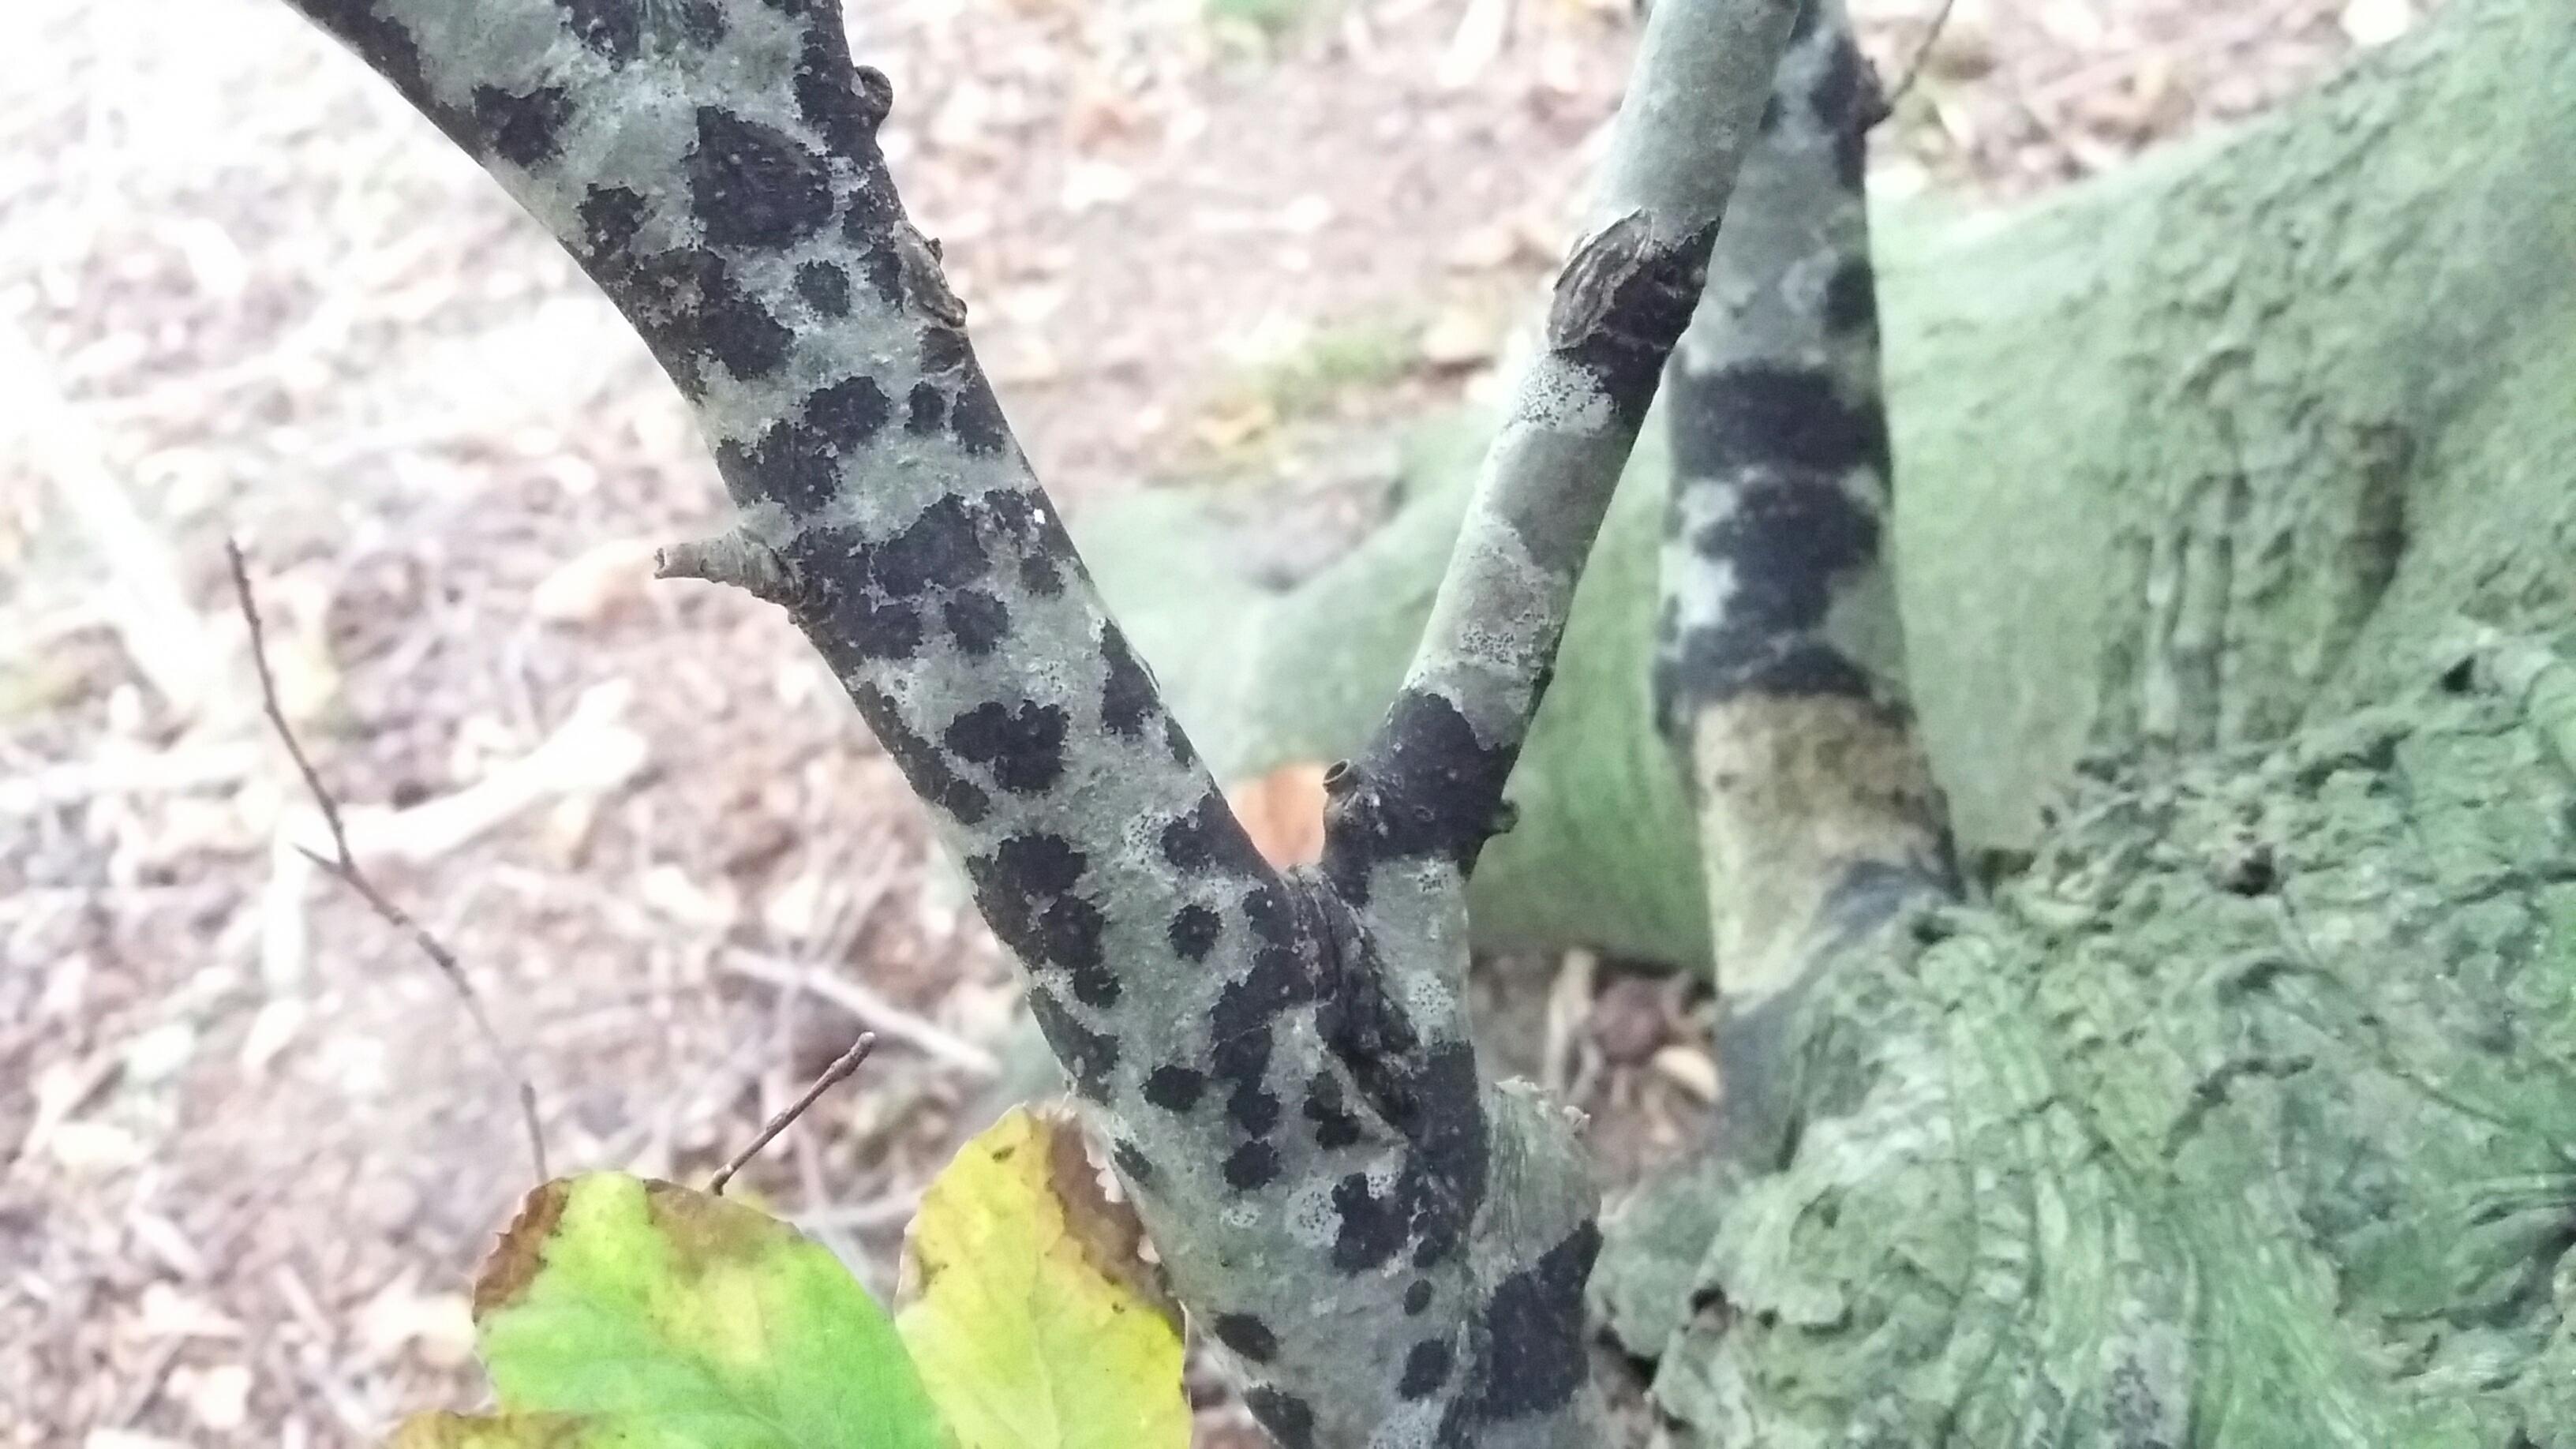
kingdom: Fungi
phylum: Ascomycota
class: Leotiomycetes
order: Rhytismatales
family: Ascodichaenaceae
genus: Ascodichaena
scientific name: Ascodichaena rugosa
